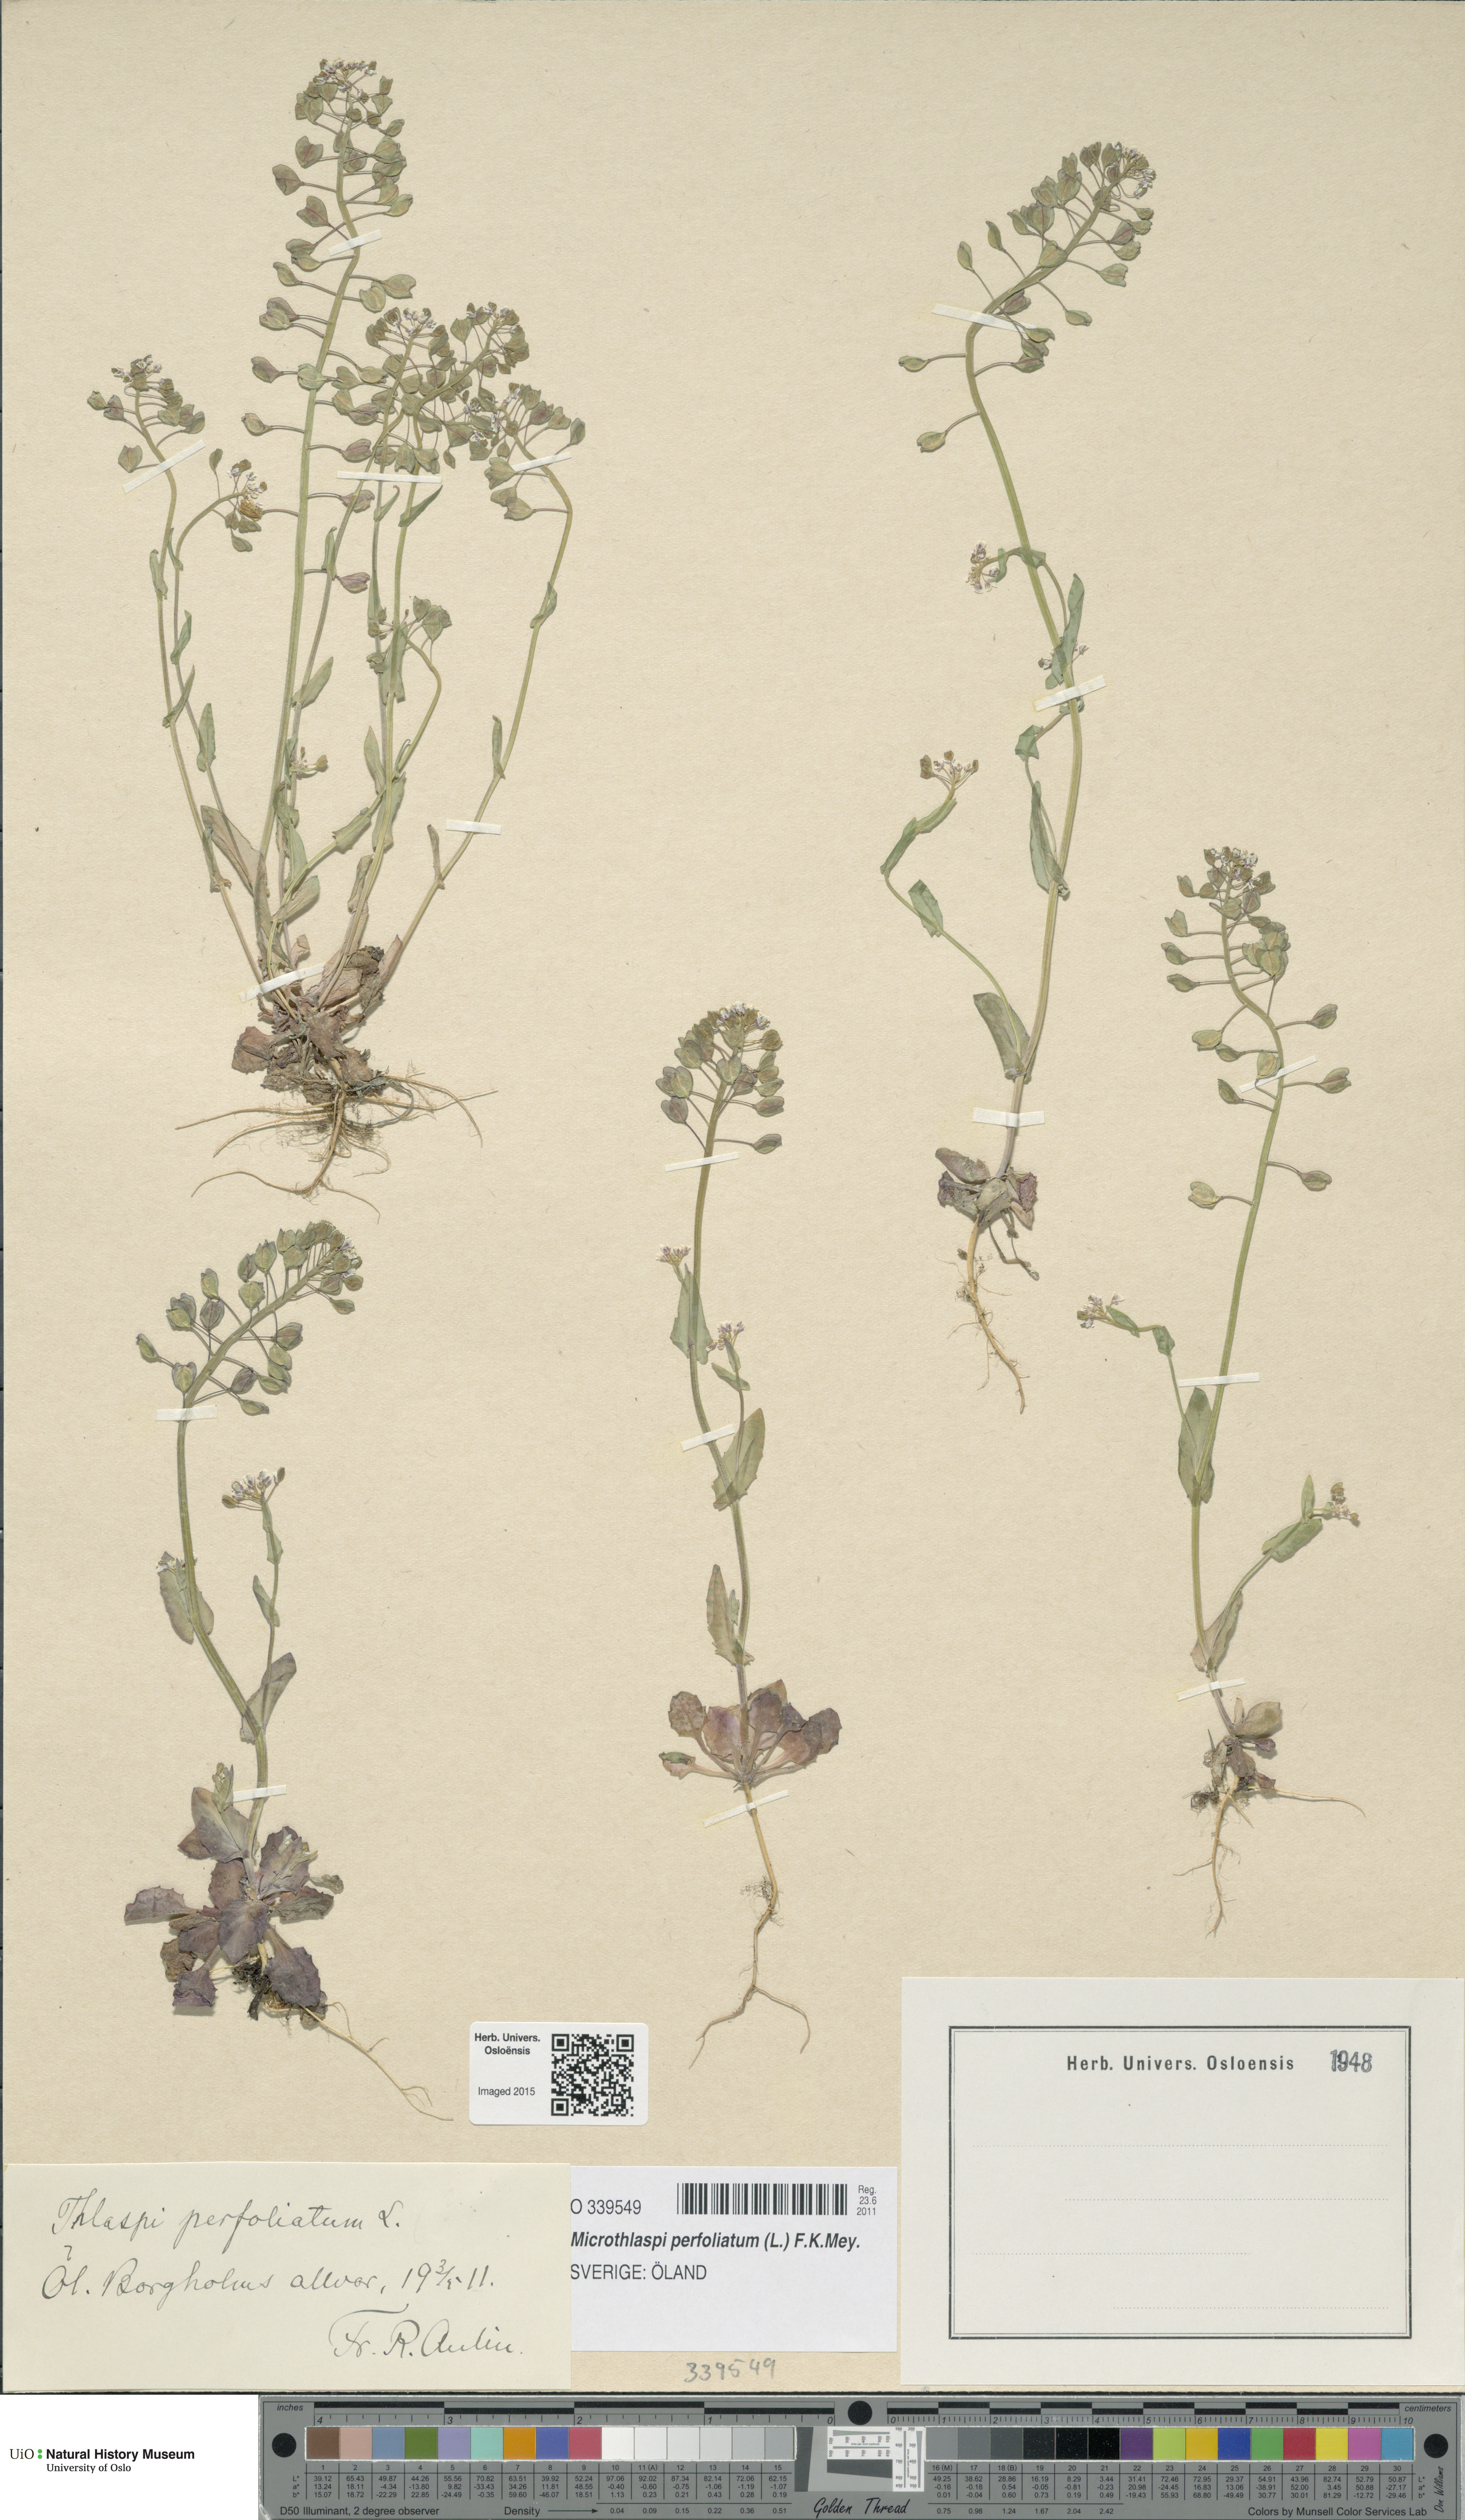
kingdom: Plantae
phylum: Tracheophyta
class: Magnoliopsida
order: Brassicales
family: Brassicaceae
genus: Noccaea
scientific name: Noccaea perfoliata
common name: Perfoliate pennycress
